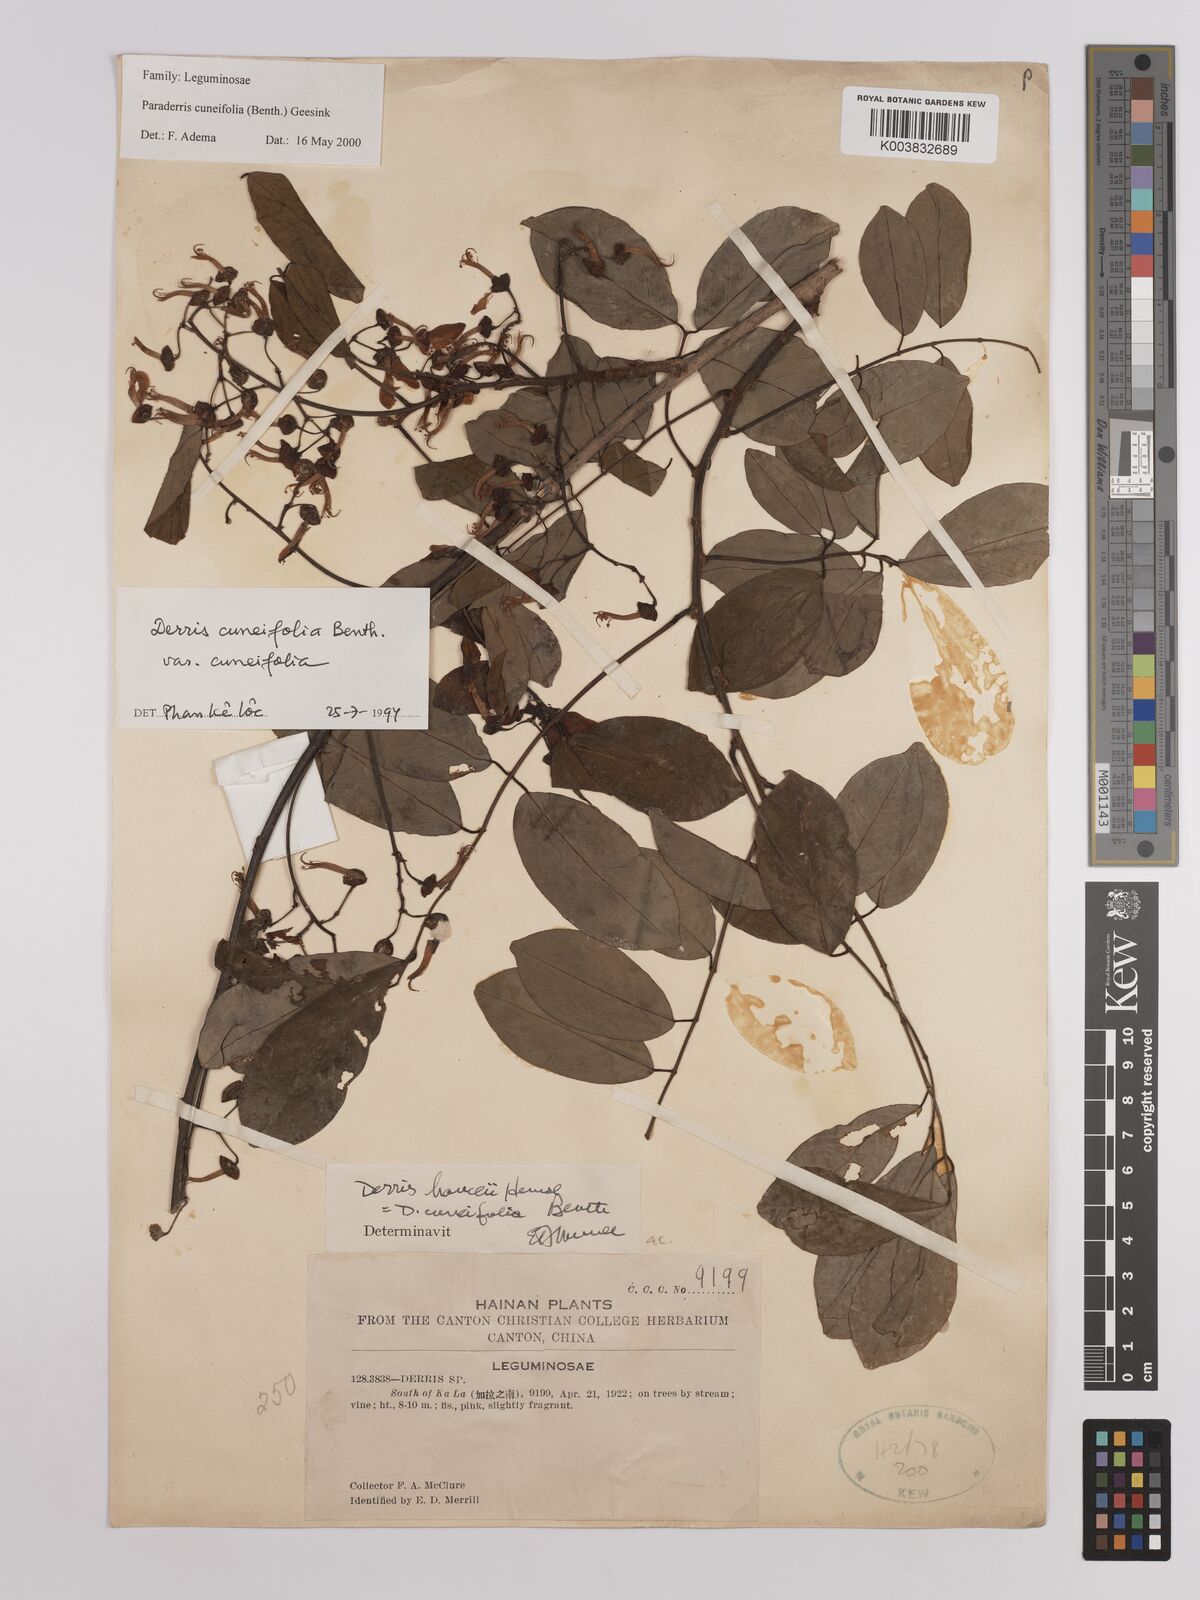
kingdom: Plantae
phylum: Tracheophyta
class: Magnoliopsida
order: Fabales
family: Fabaceae
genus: Derris
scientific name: Derris cuneifolia
